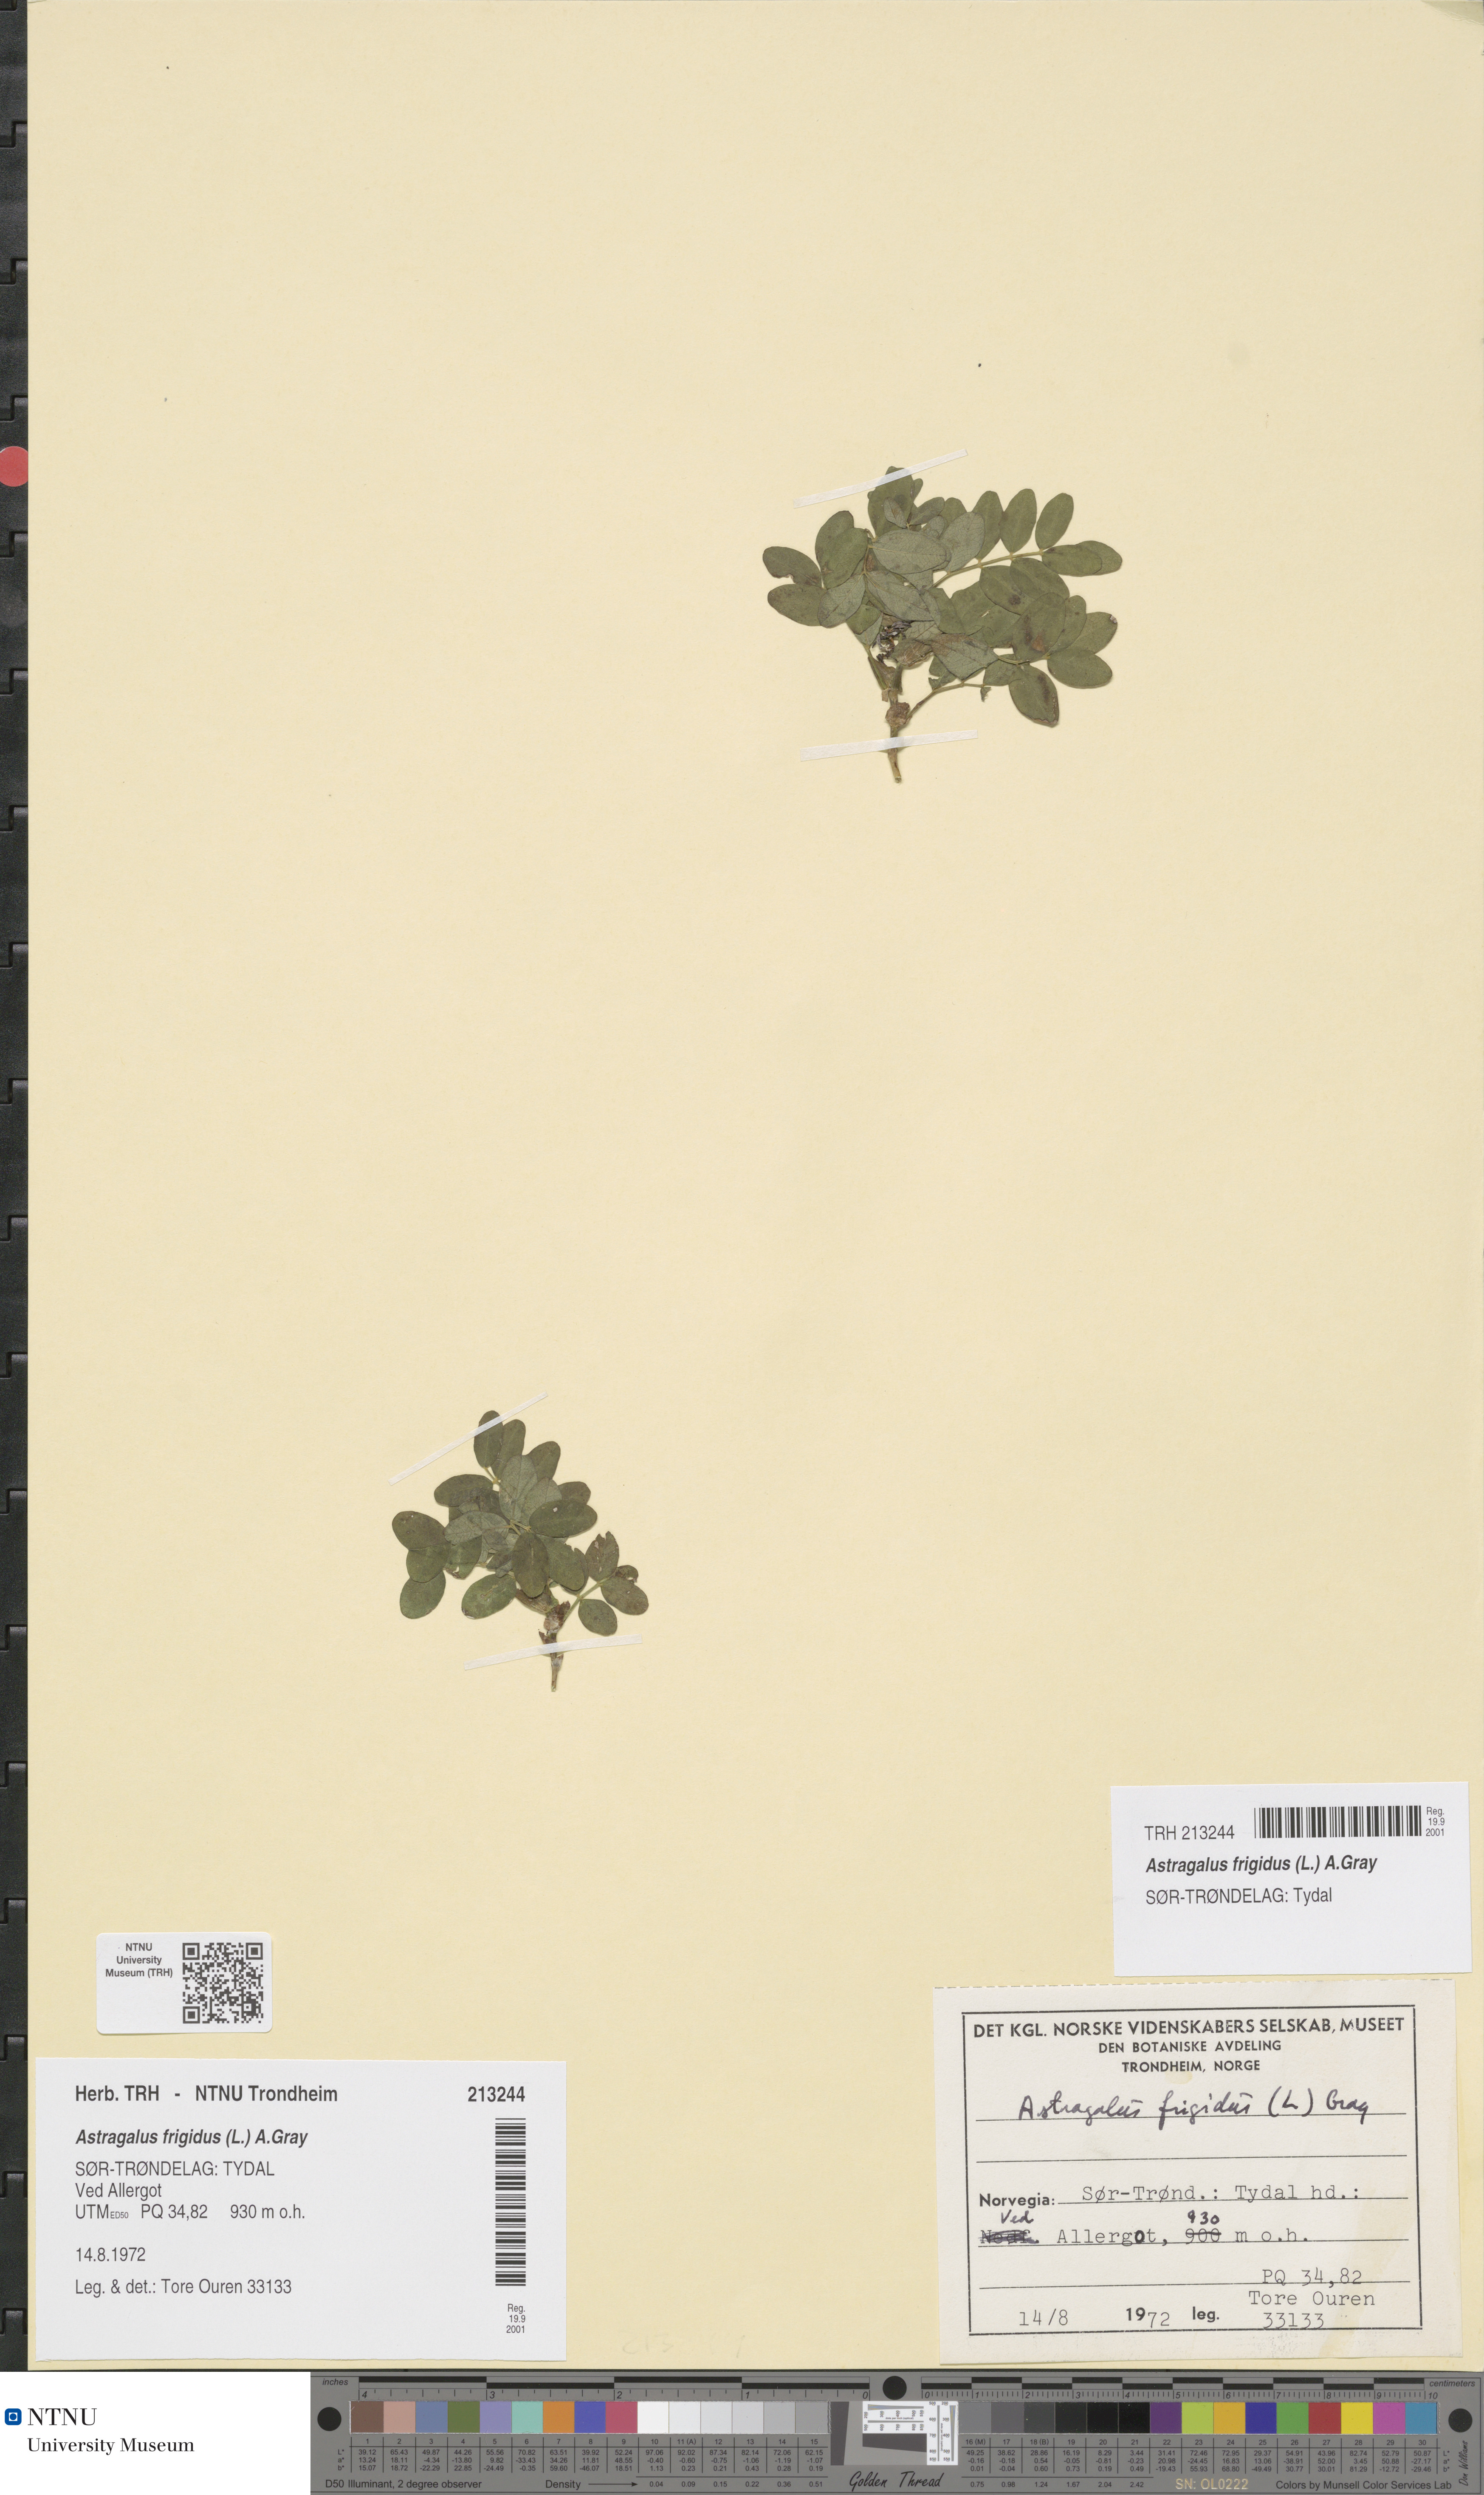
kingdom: Plantae
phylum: Tracheophyta
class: Magnoliopsida
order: Fabales
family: Fabaceae
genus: Astragalus
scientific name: Astragalus frigidus
